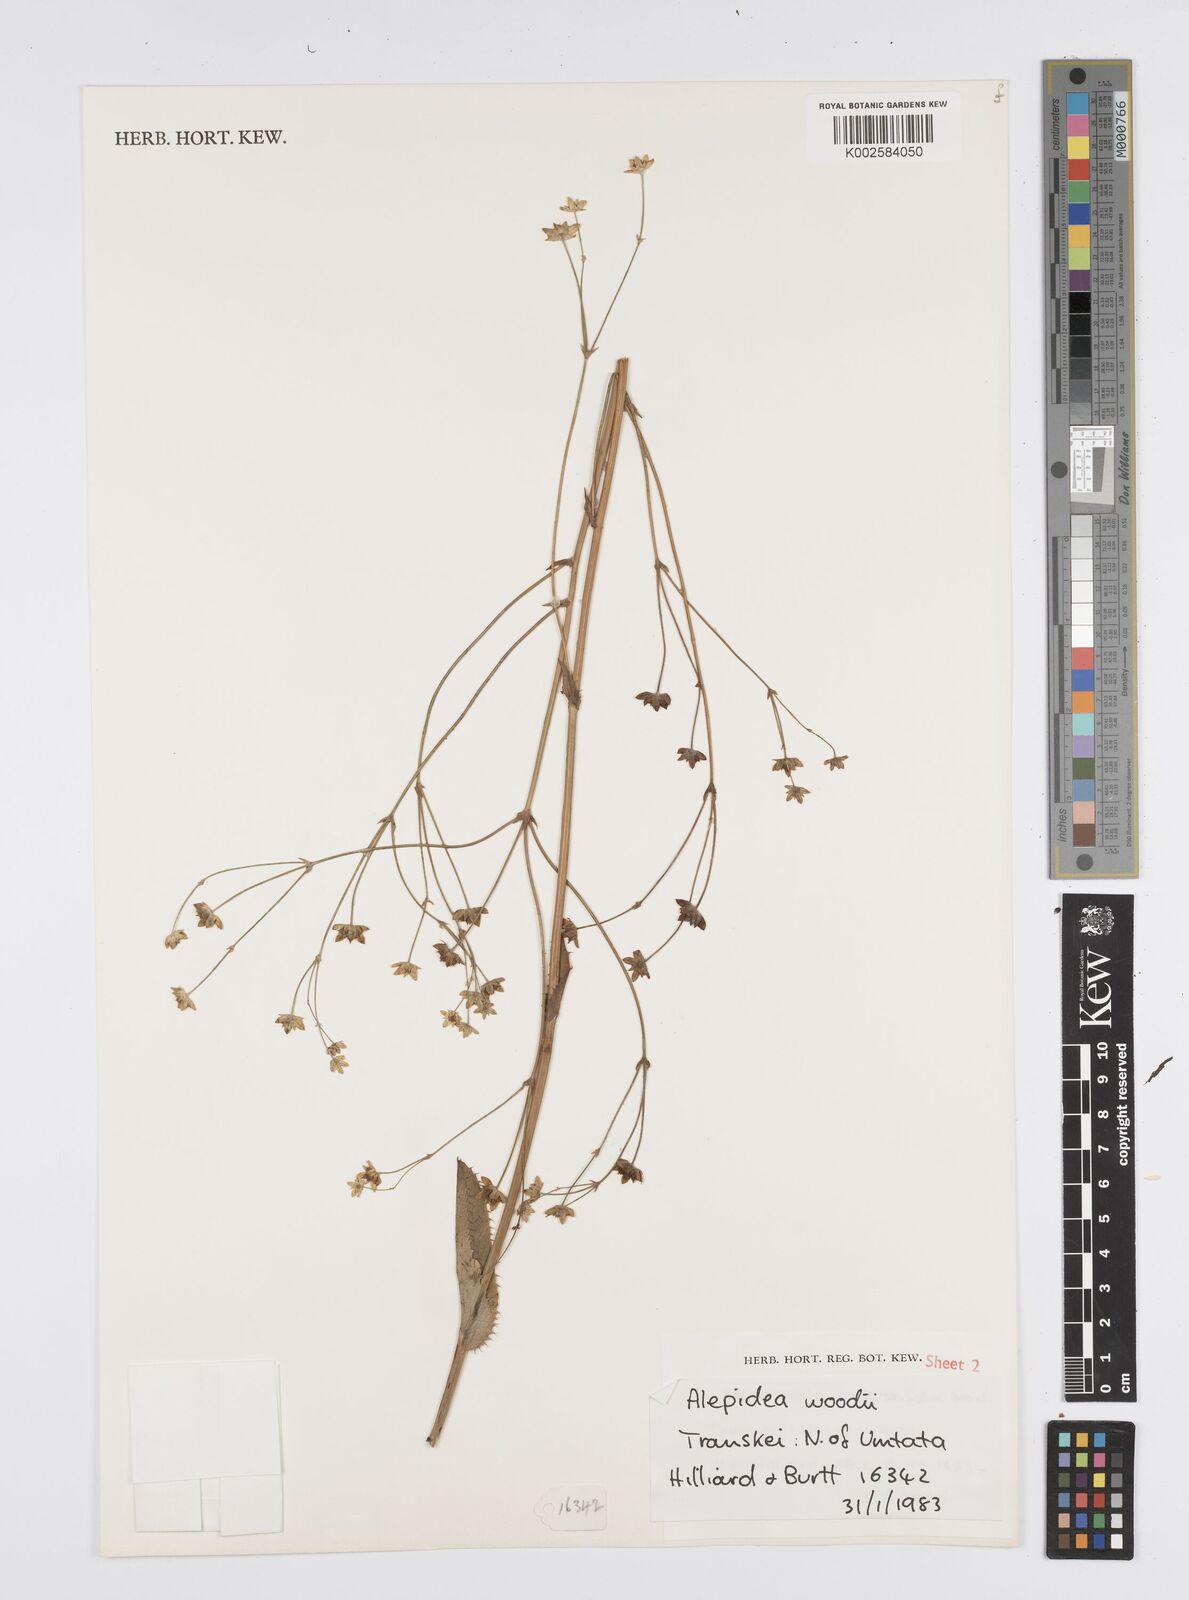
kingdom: Plantae
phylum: Tracheophyta
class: Magnoliopsida
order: Apiales
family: Apiaceae
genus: Alepidea
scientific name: Alepidea woodii
